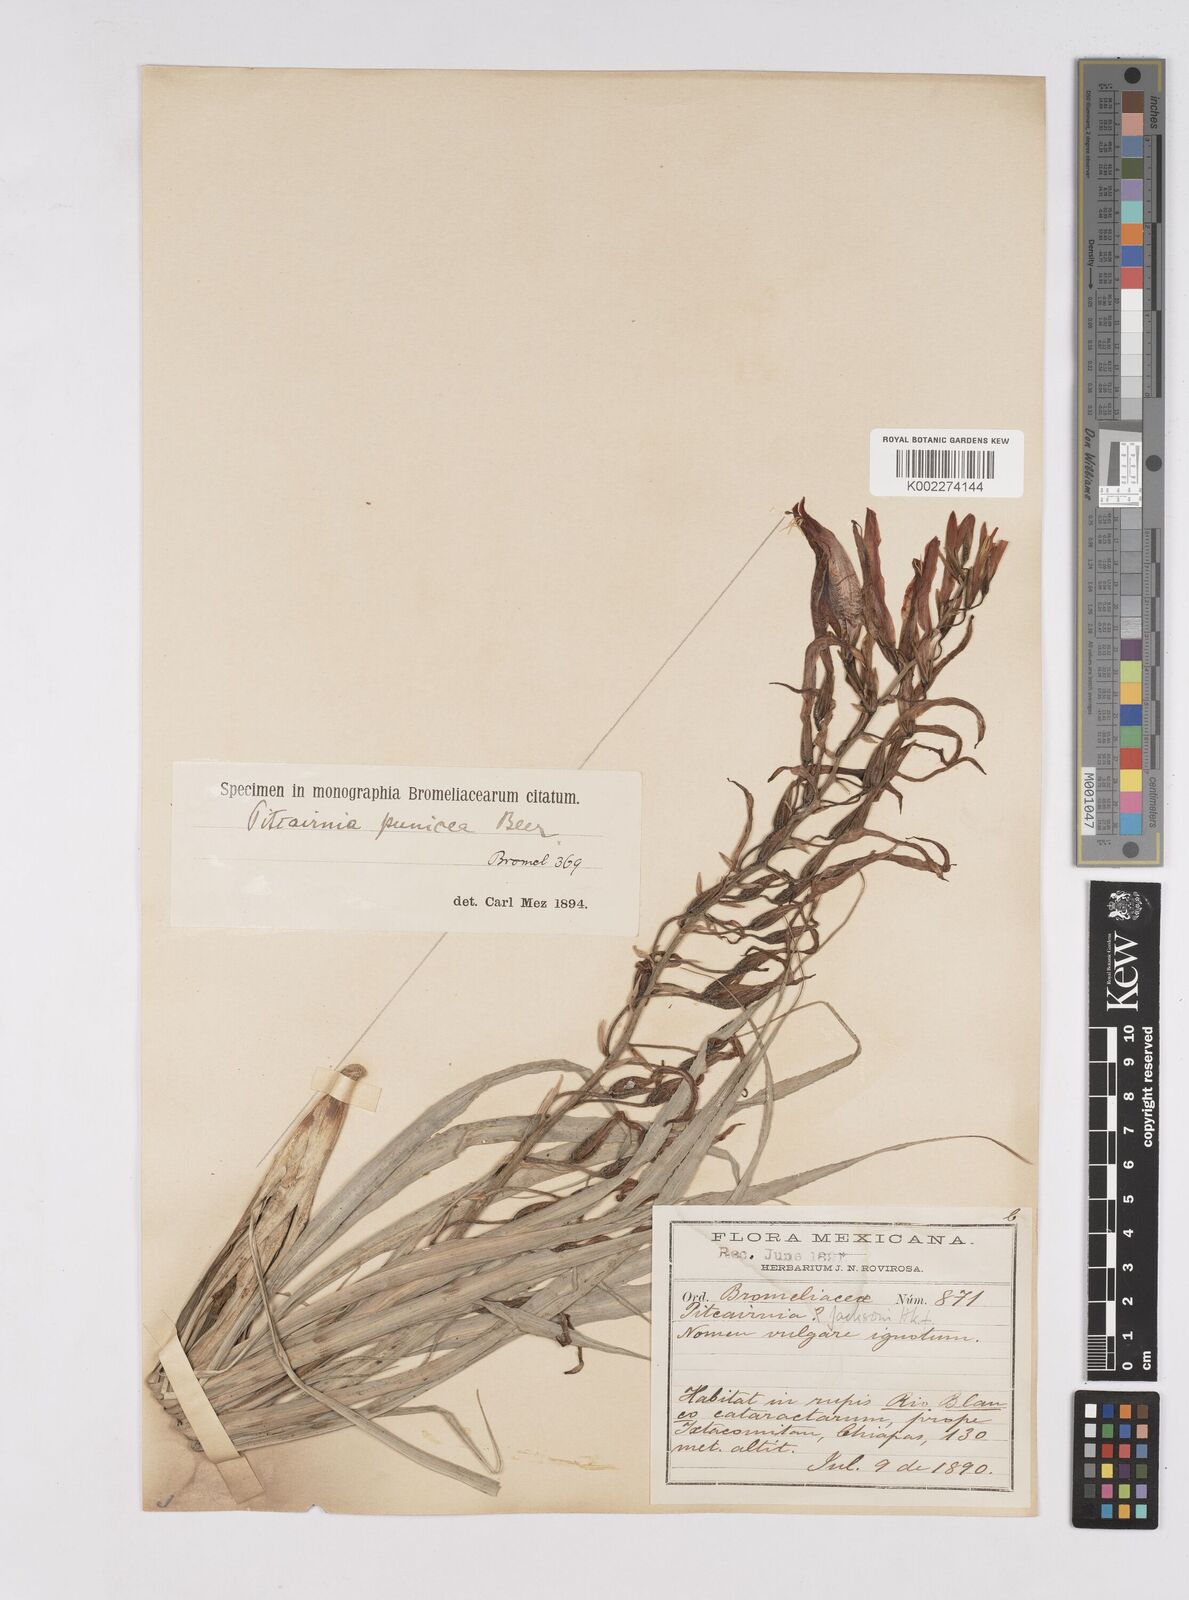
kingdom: Plantae
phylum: Tracheophyta
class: Liliopsida
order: Poales
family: Bromeliaceae
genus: Pitcairnia
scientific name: Pitcairnia punicea
